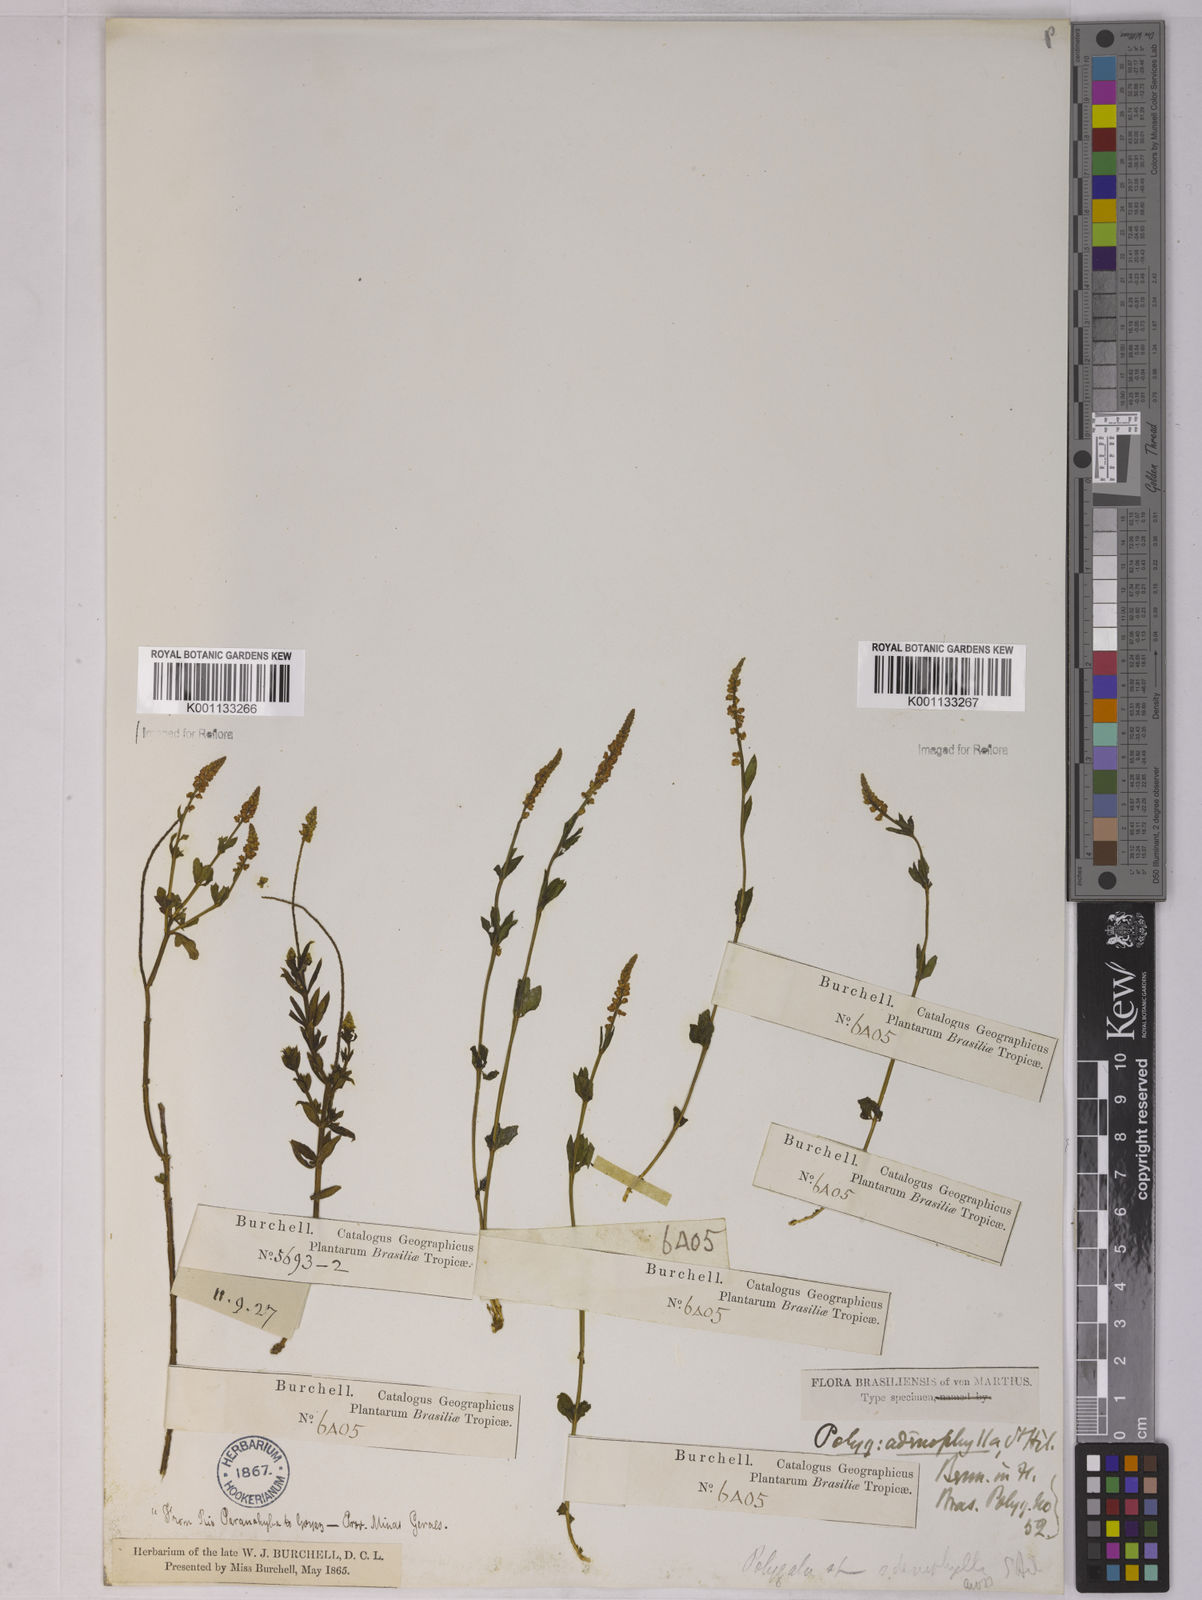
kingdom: Plantae
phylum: Tracheophyta
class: Magnoliopsida
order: Fabales
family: Polygalaceae
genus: Polygala
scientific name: Polygala adenophylla
